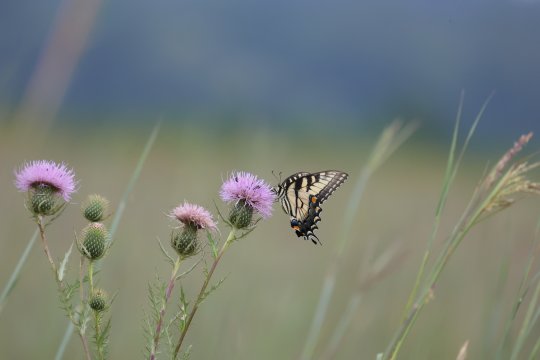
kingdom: Animalia
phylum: Arthropoda
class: Insecta
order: Lepidoptera
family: Papilionidae
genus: Pterourus
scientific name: Pterourus glaucus
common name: Eastern Tiger Swallowtail
